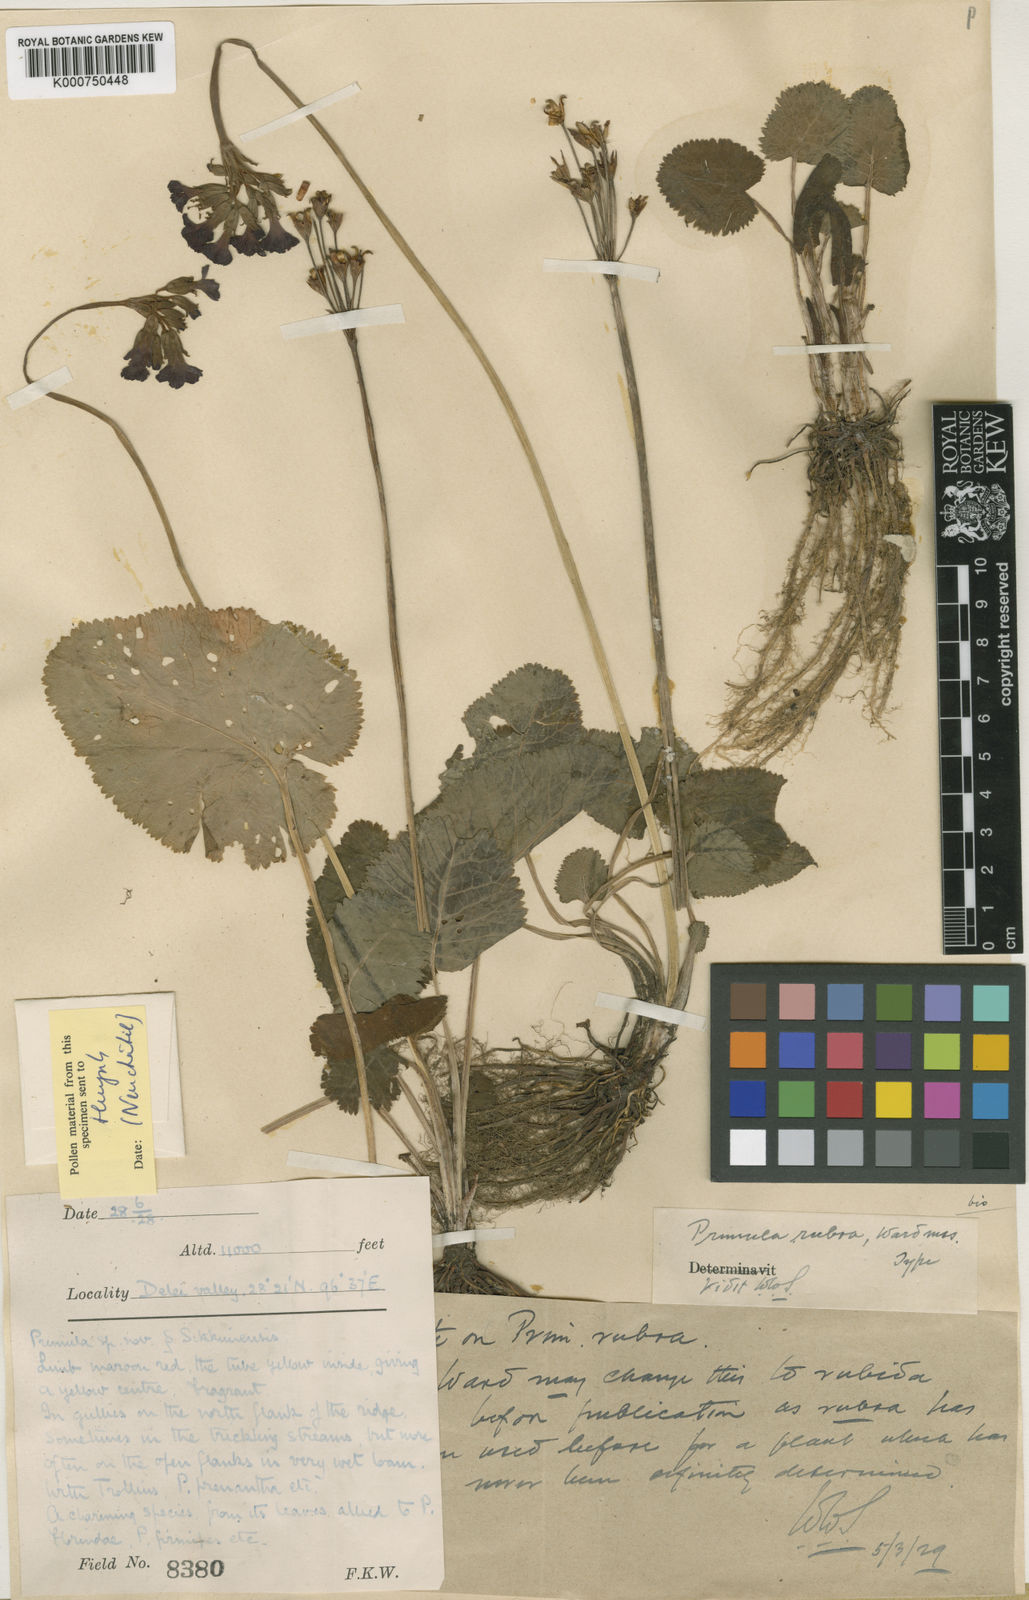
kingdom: Plantae
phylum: Tracheophyta
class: Magnoliopsida
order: Ericales
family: Primulaceae
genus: Primula
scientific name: Primula firmipes
